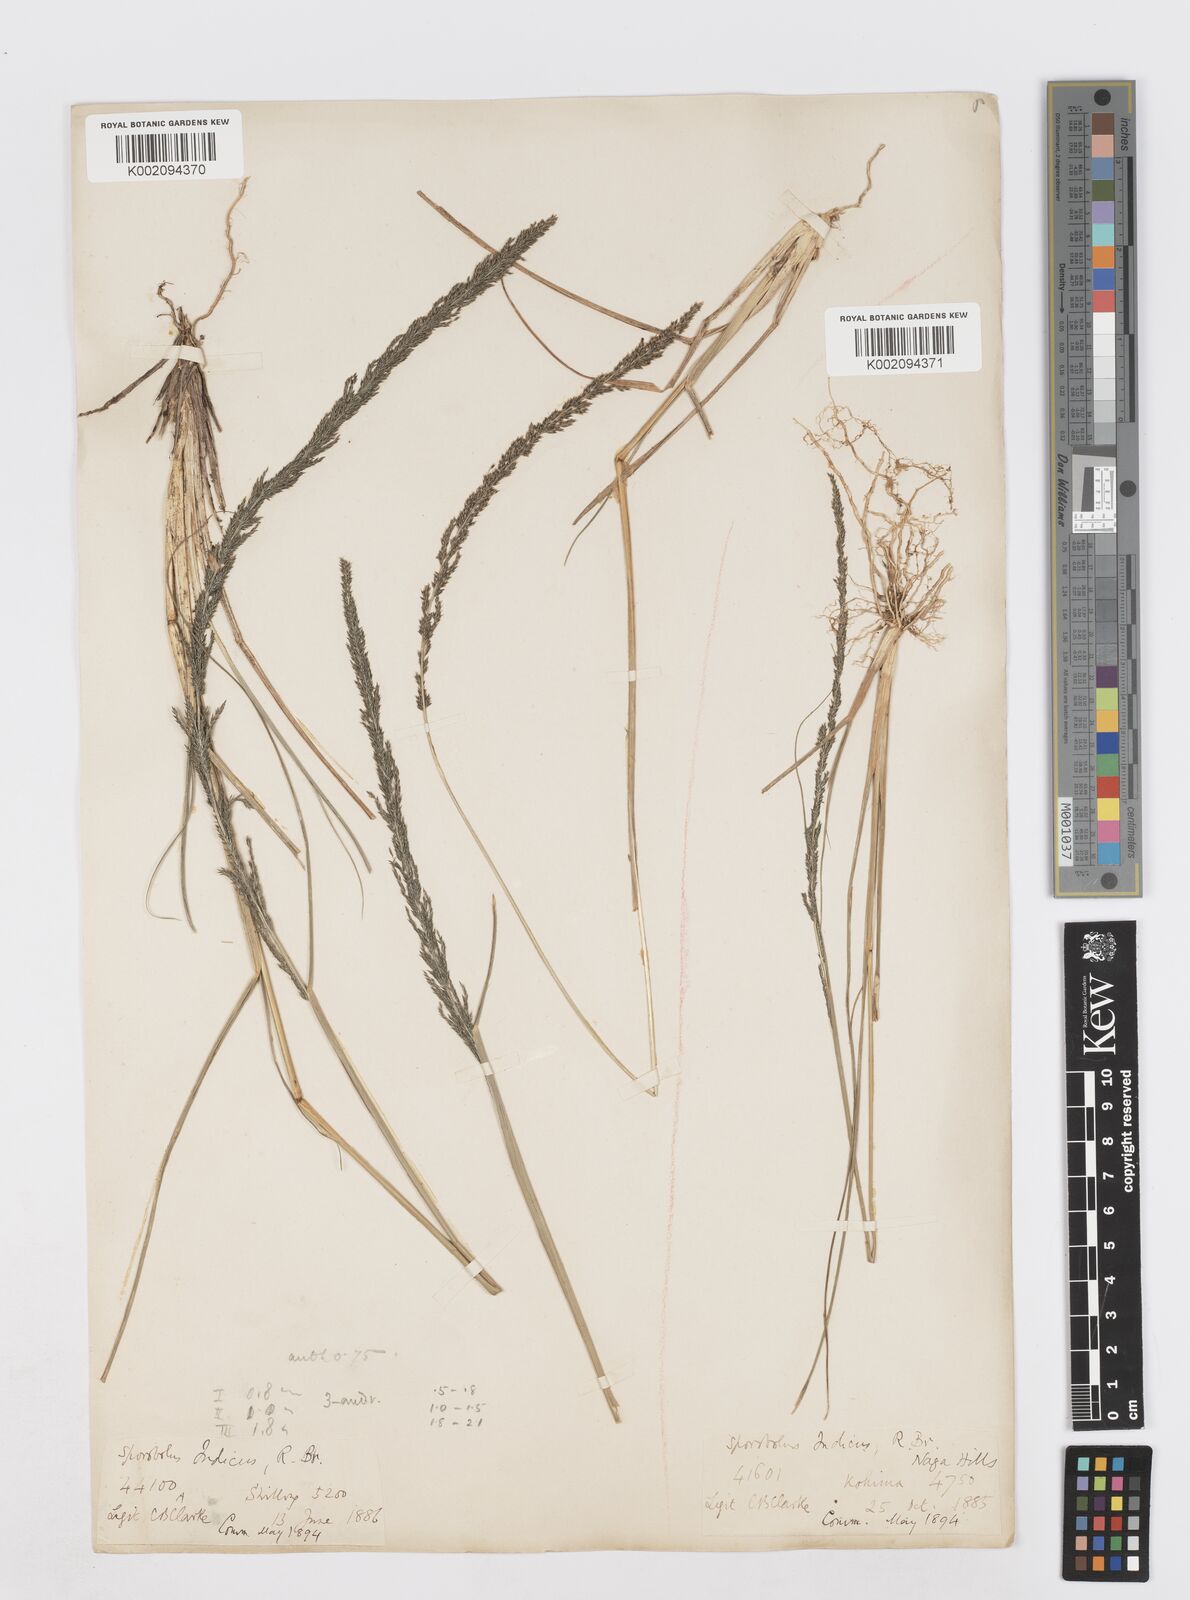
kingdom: Plantae
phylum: Tracheophyta
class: Liliopsida
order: Poales
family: Poaceae
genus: Sporobolus
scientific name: Sporobolus fertilis
